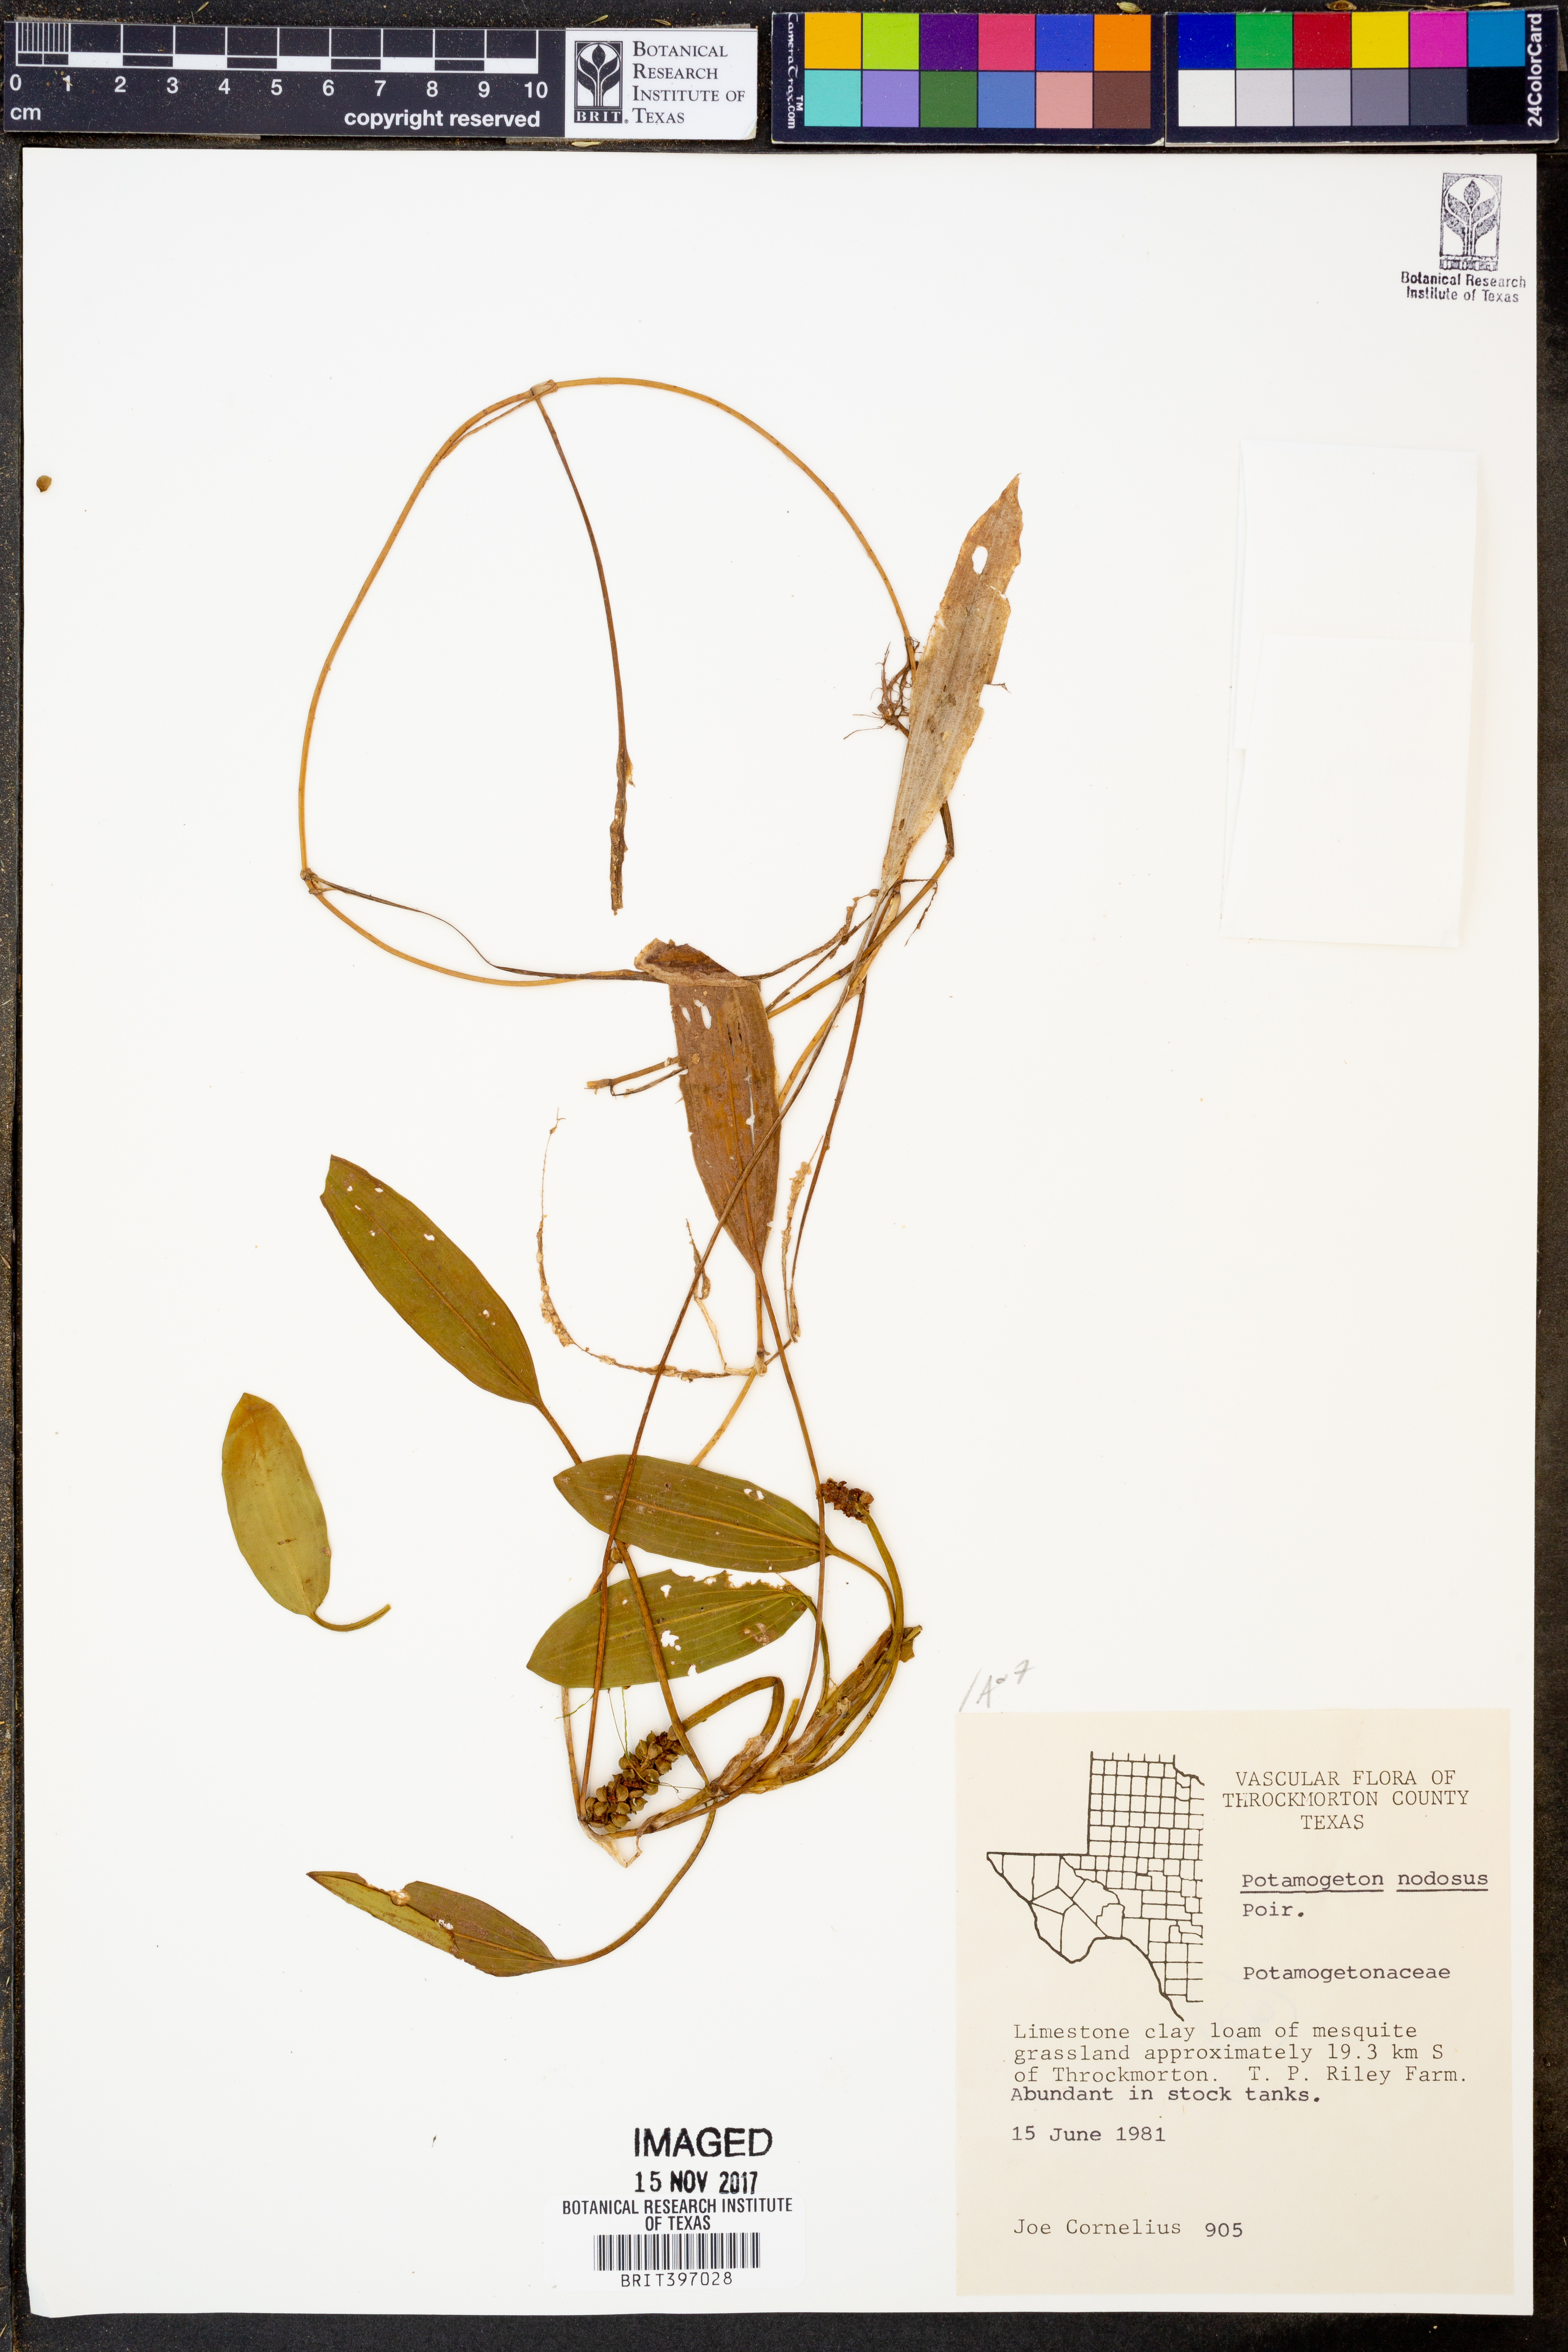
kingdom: Plantae
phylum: Tracheophyta
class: Liliopsida
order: Alismatales
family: Potamogetonaceae
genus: Potamogeton
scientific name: Potamogeton nodosus
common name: Loddon pondweed
